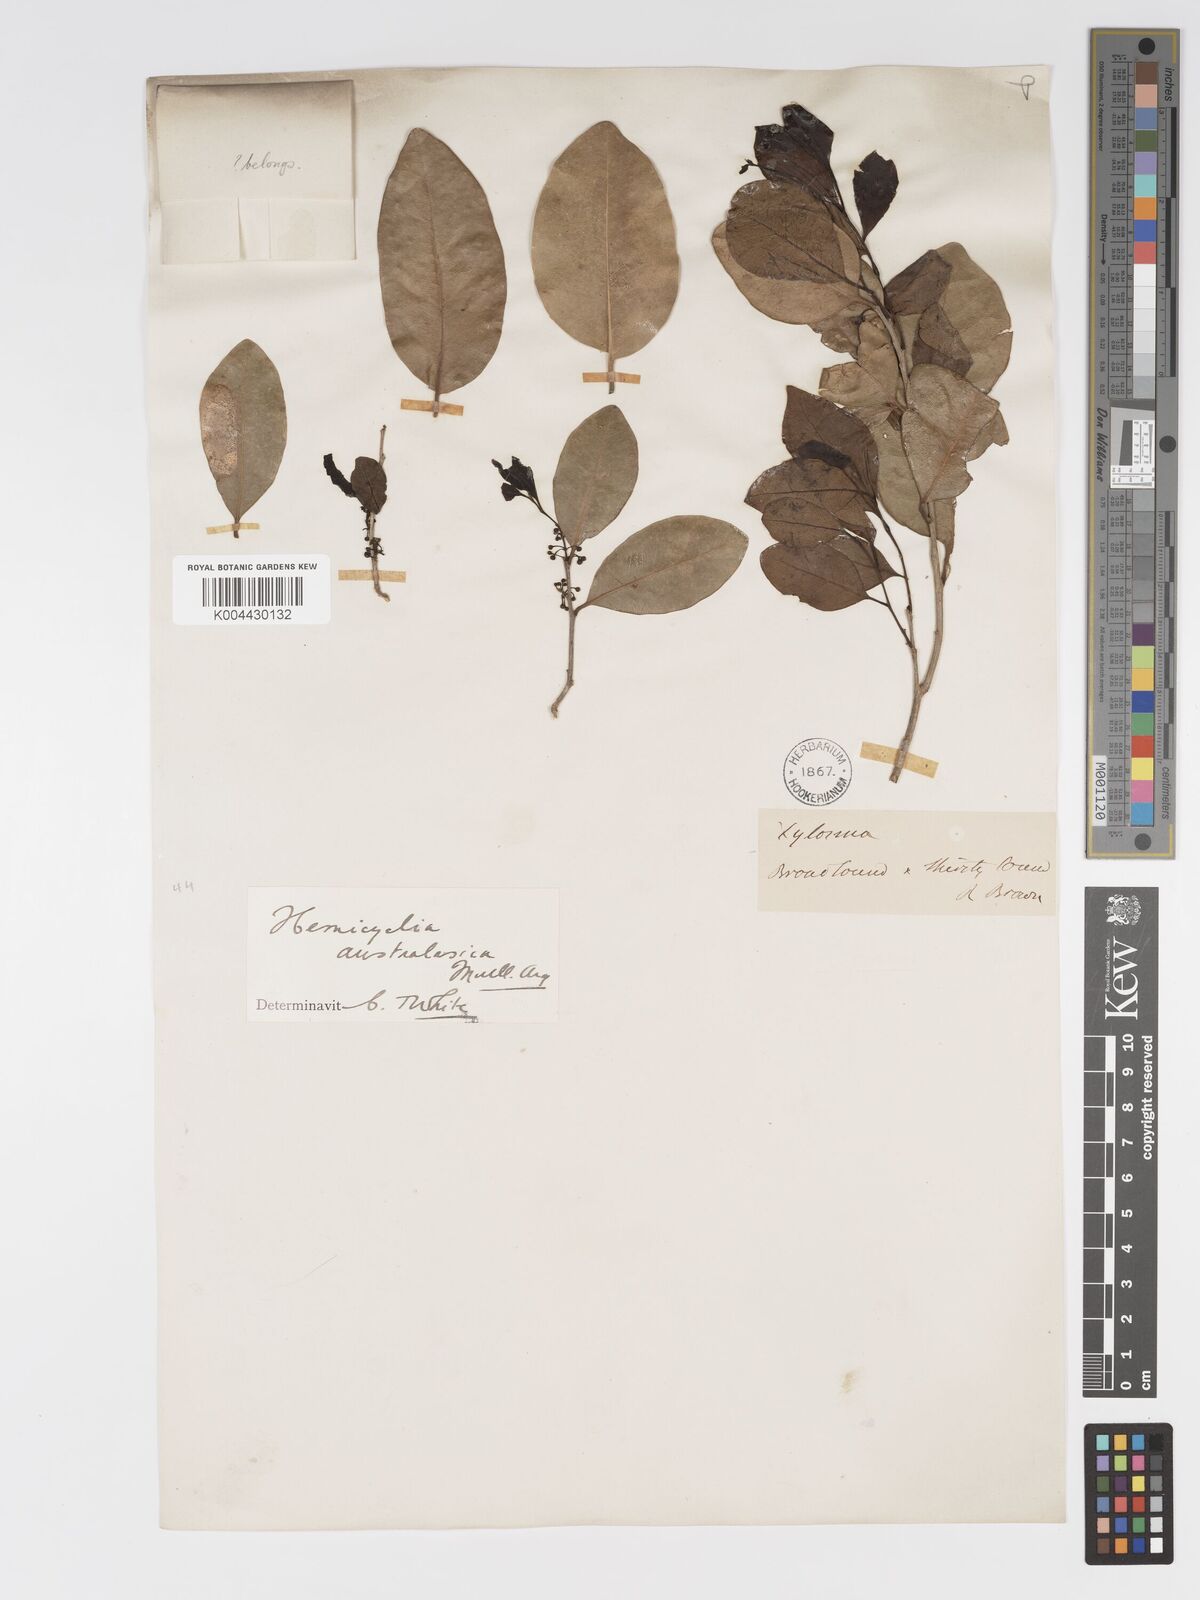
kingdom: Plantae
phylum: Tracheophyta
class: Magnoliopsida
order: Malpighiales
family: Putranjivaceae
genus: Drypetes
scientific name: Drypetes deplanchei
